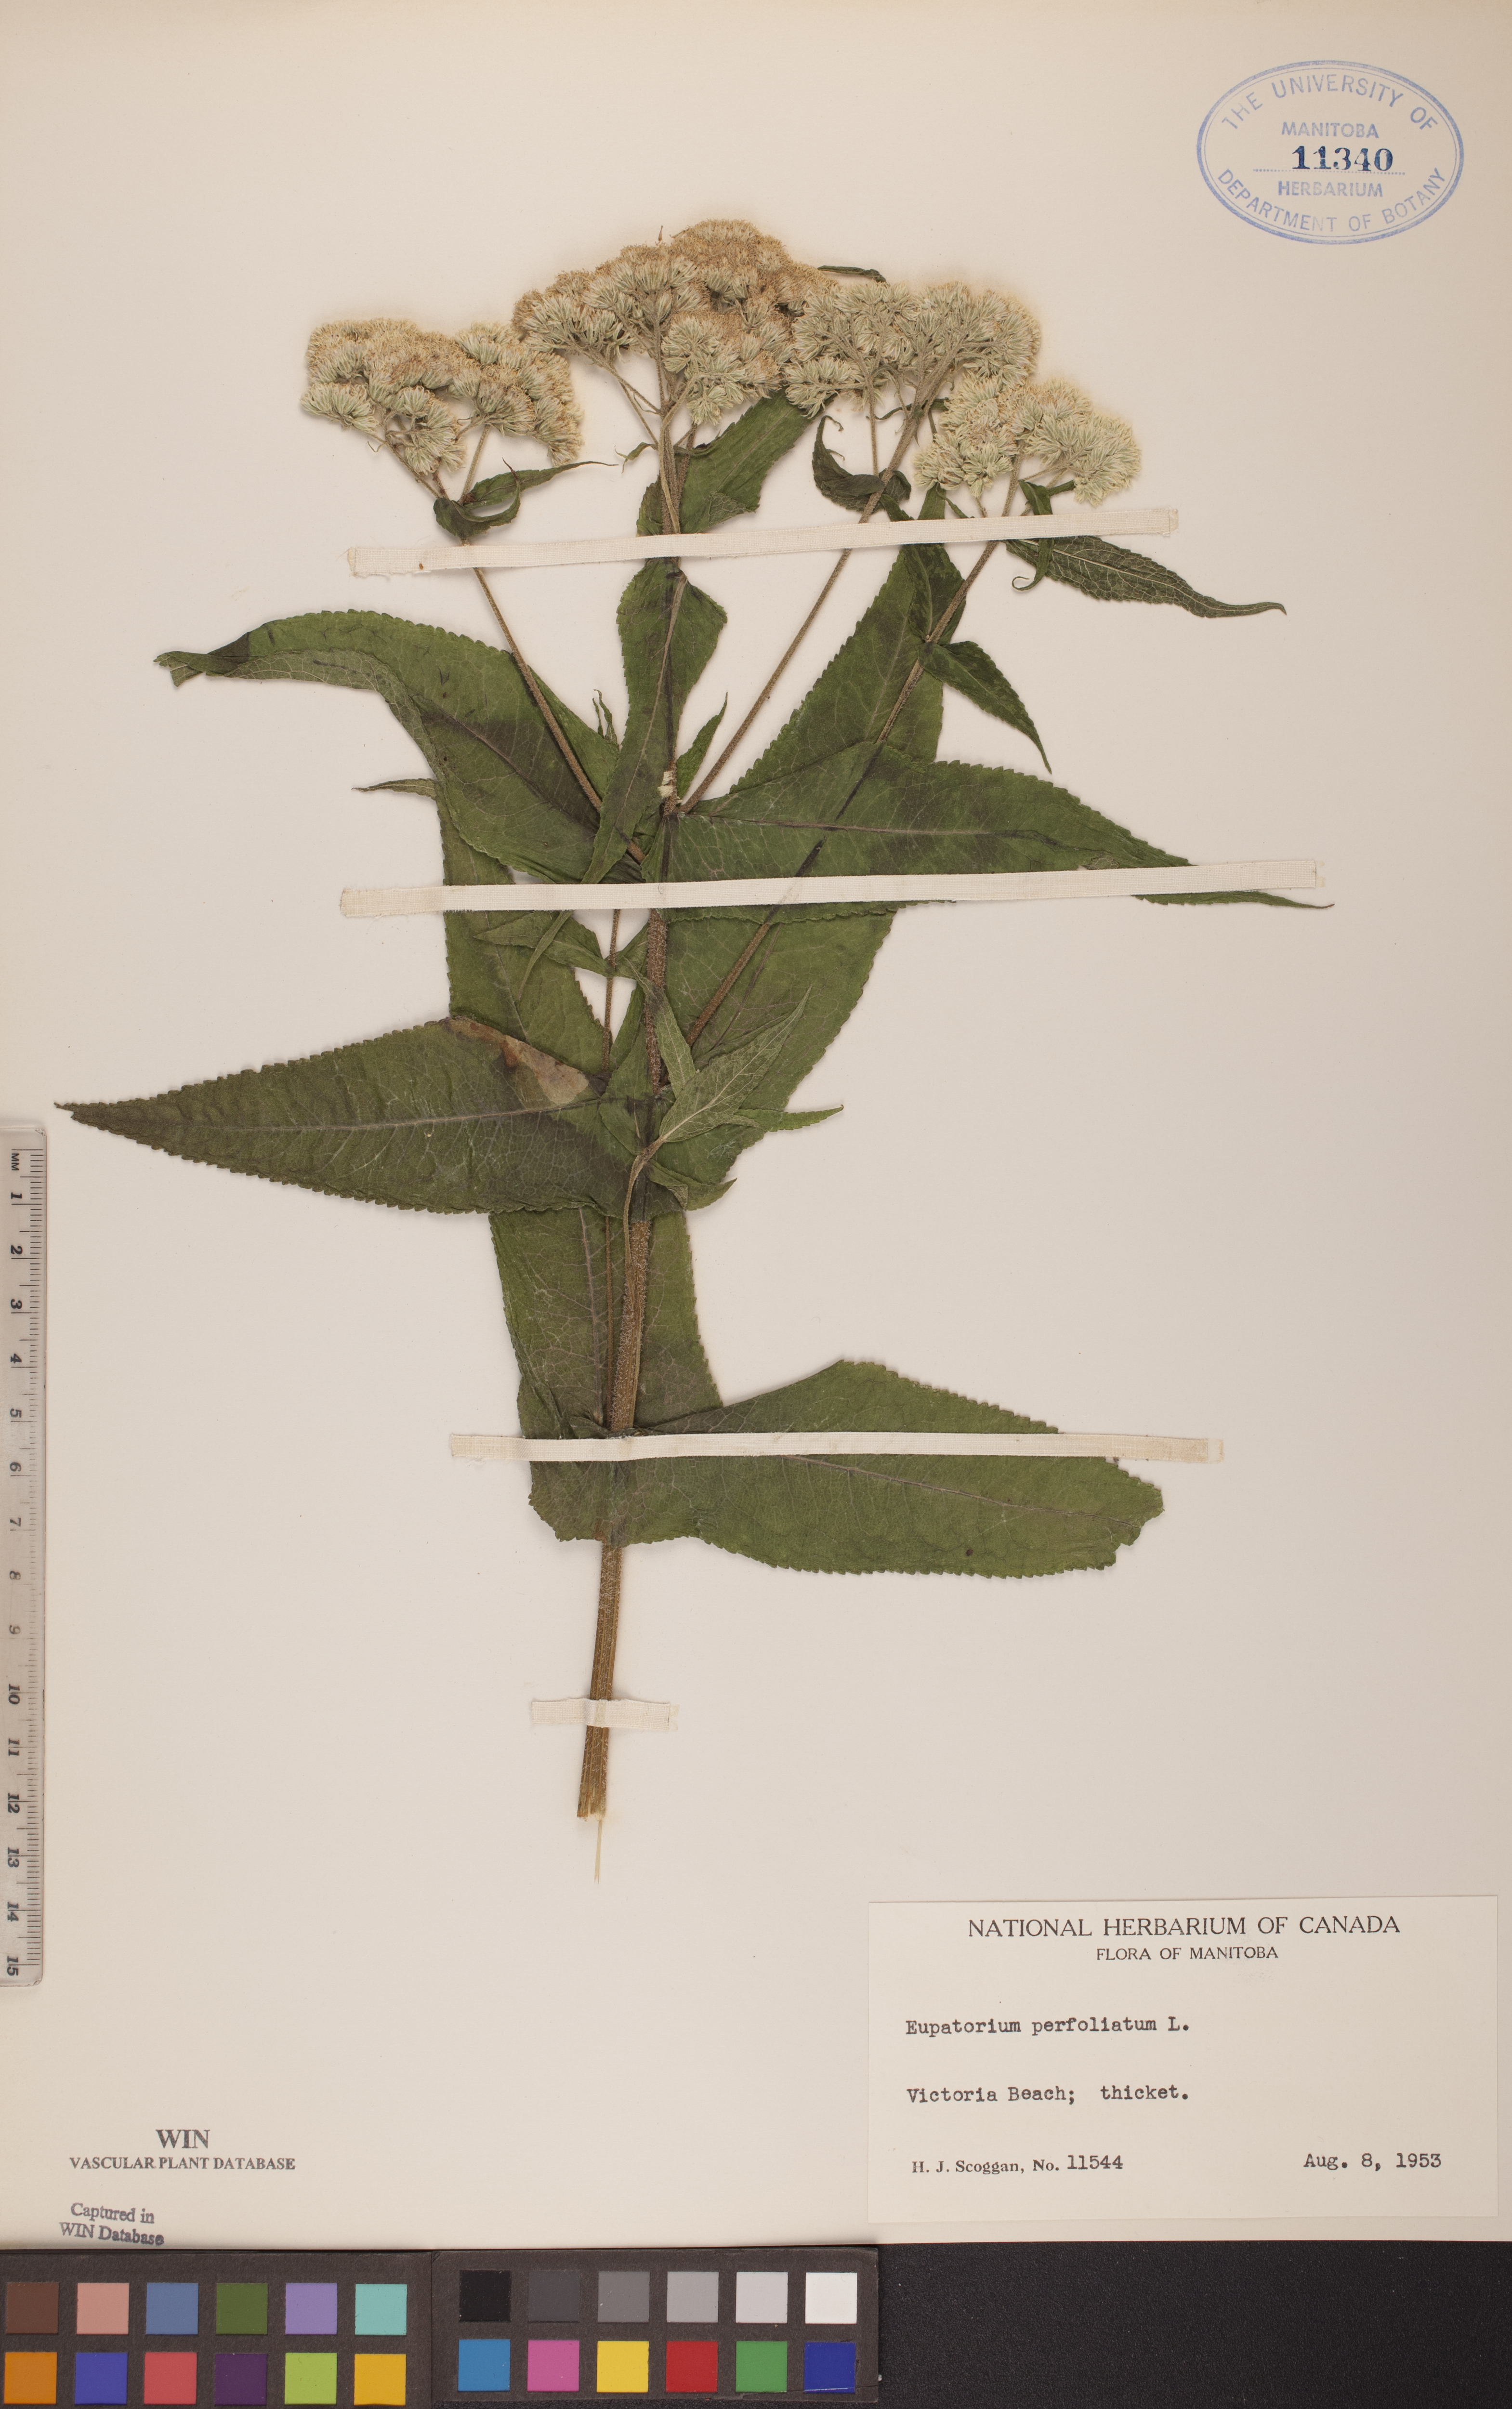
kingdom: Plantae
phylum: Tracheophyta
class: Magnoliopsida
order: Asterales
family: Asteraceae
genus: Eupatorium
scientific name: Eupatorium perfoliatum
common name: Boneset
